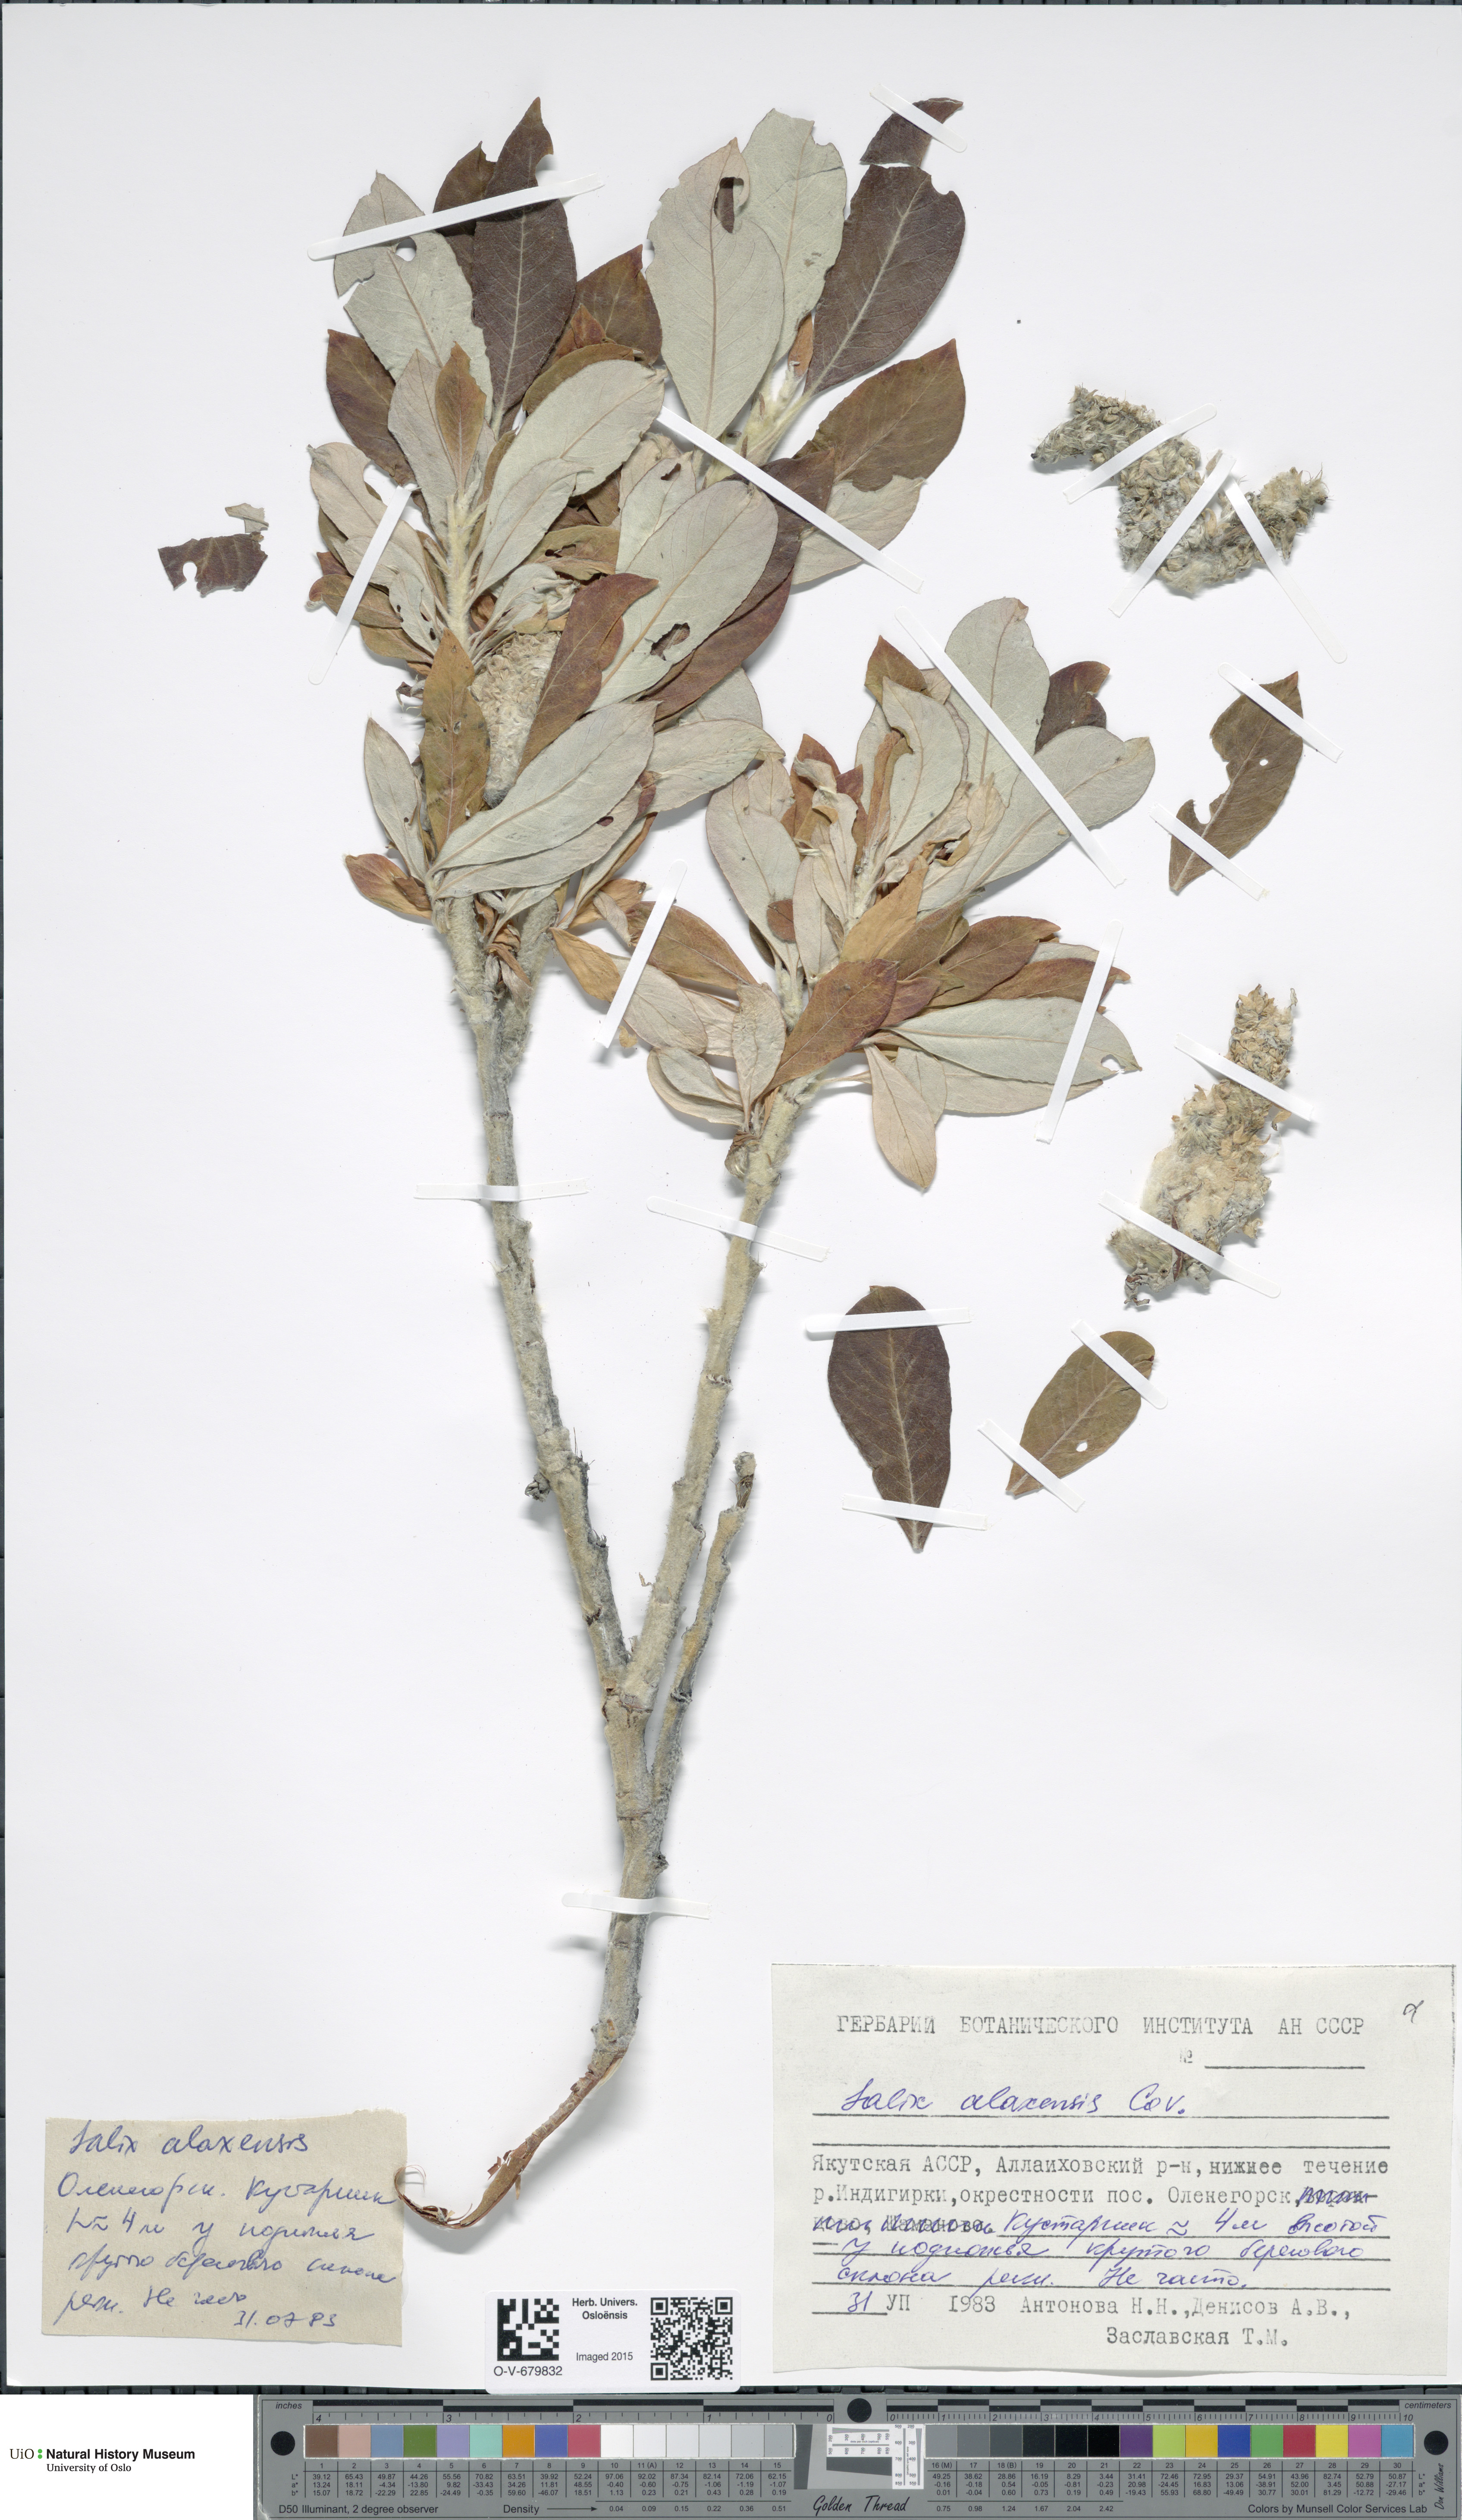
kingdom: Plantae
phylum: Tracheophyta
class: Magnoliopsida
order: Malpighiales
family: Salicaceae
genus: Salix
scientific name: Salix alaxensis
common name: Feltleaf willow
